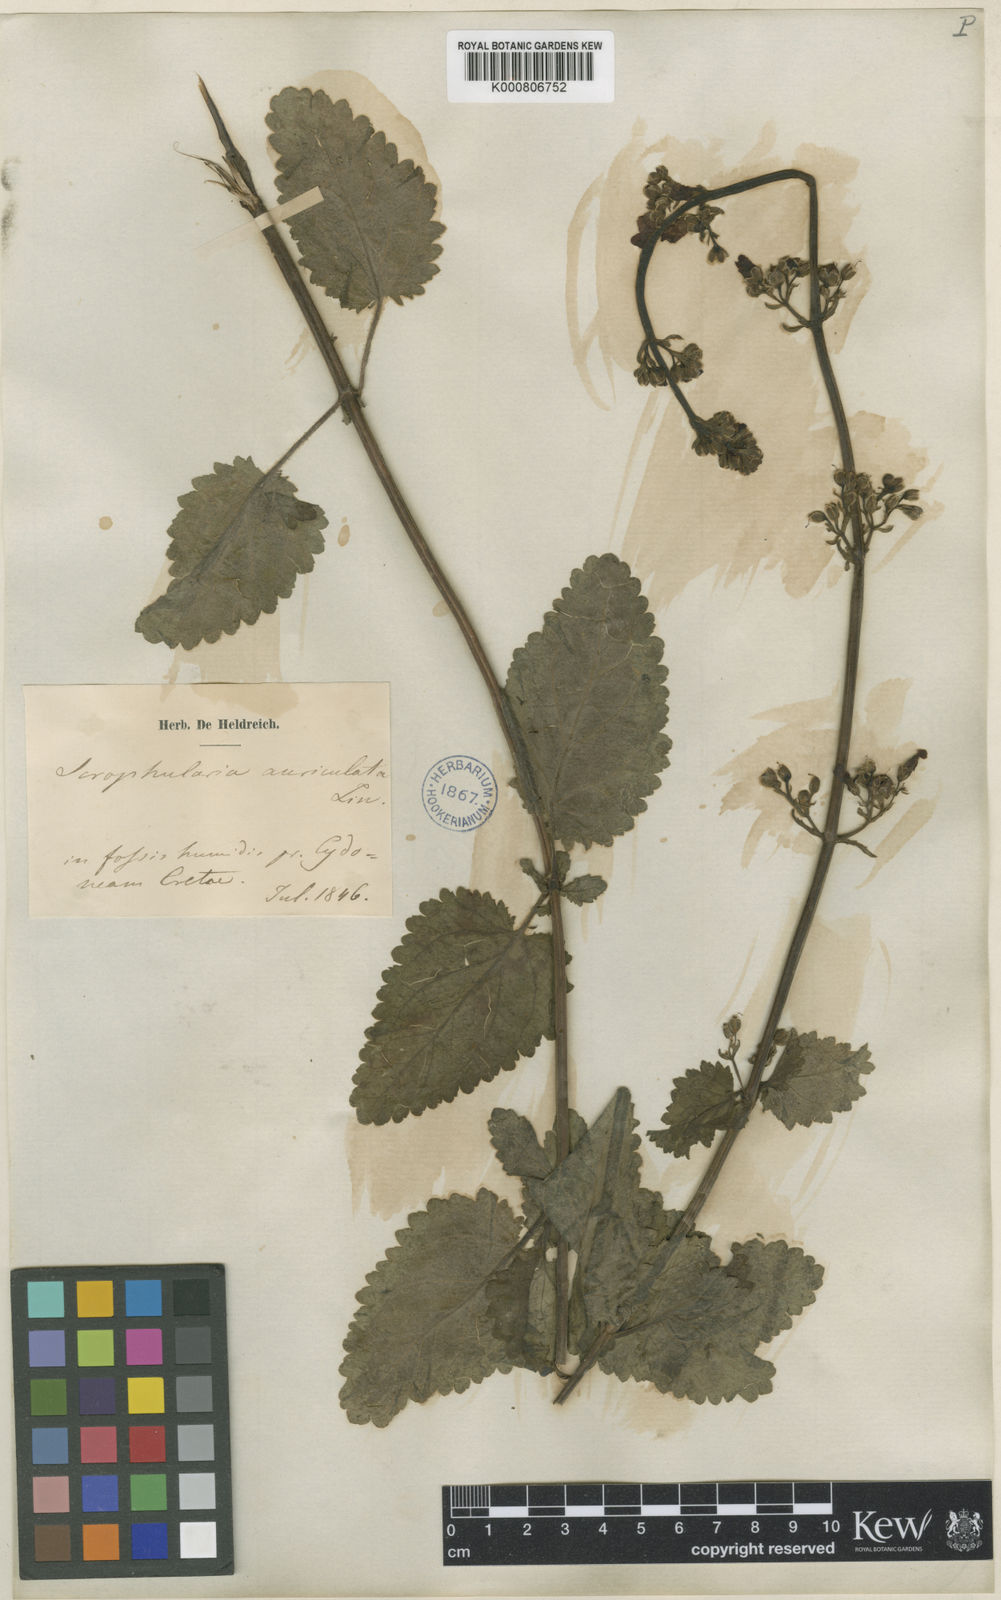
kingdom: Plantae
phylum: Tracheophyta
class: Magnoliopsida
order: Lamiales
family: Scrophulariaceae
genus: Scrophularia
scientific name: Scrophularia auriculata
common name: Water betony
